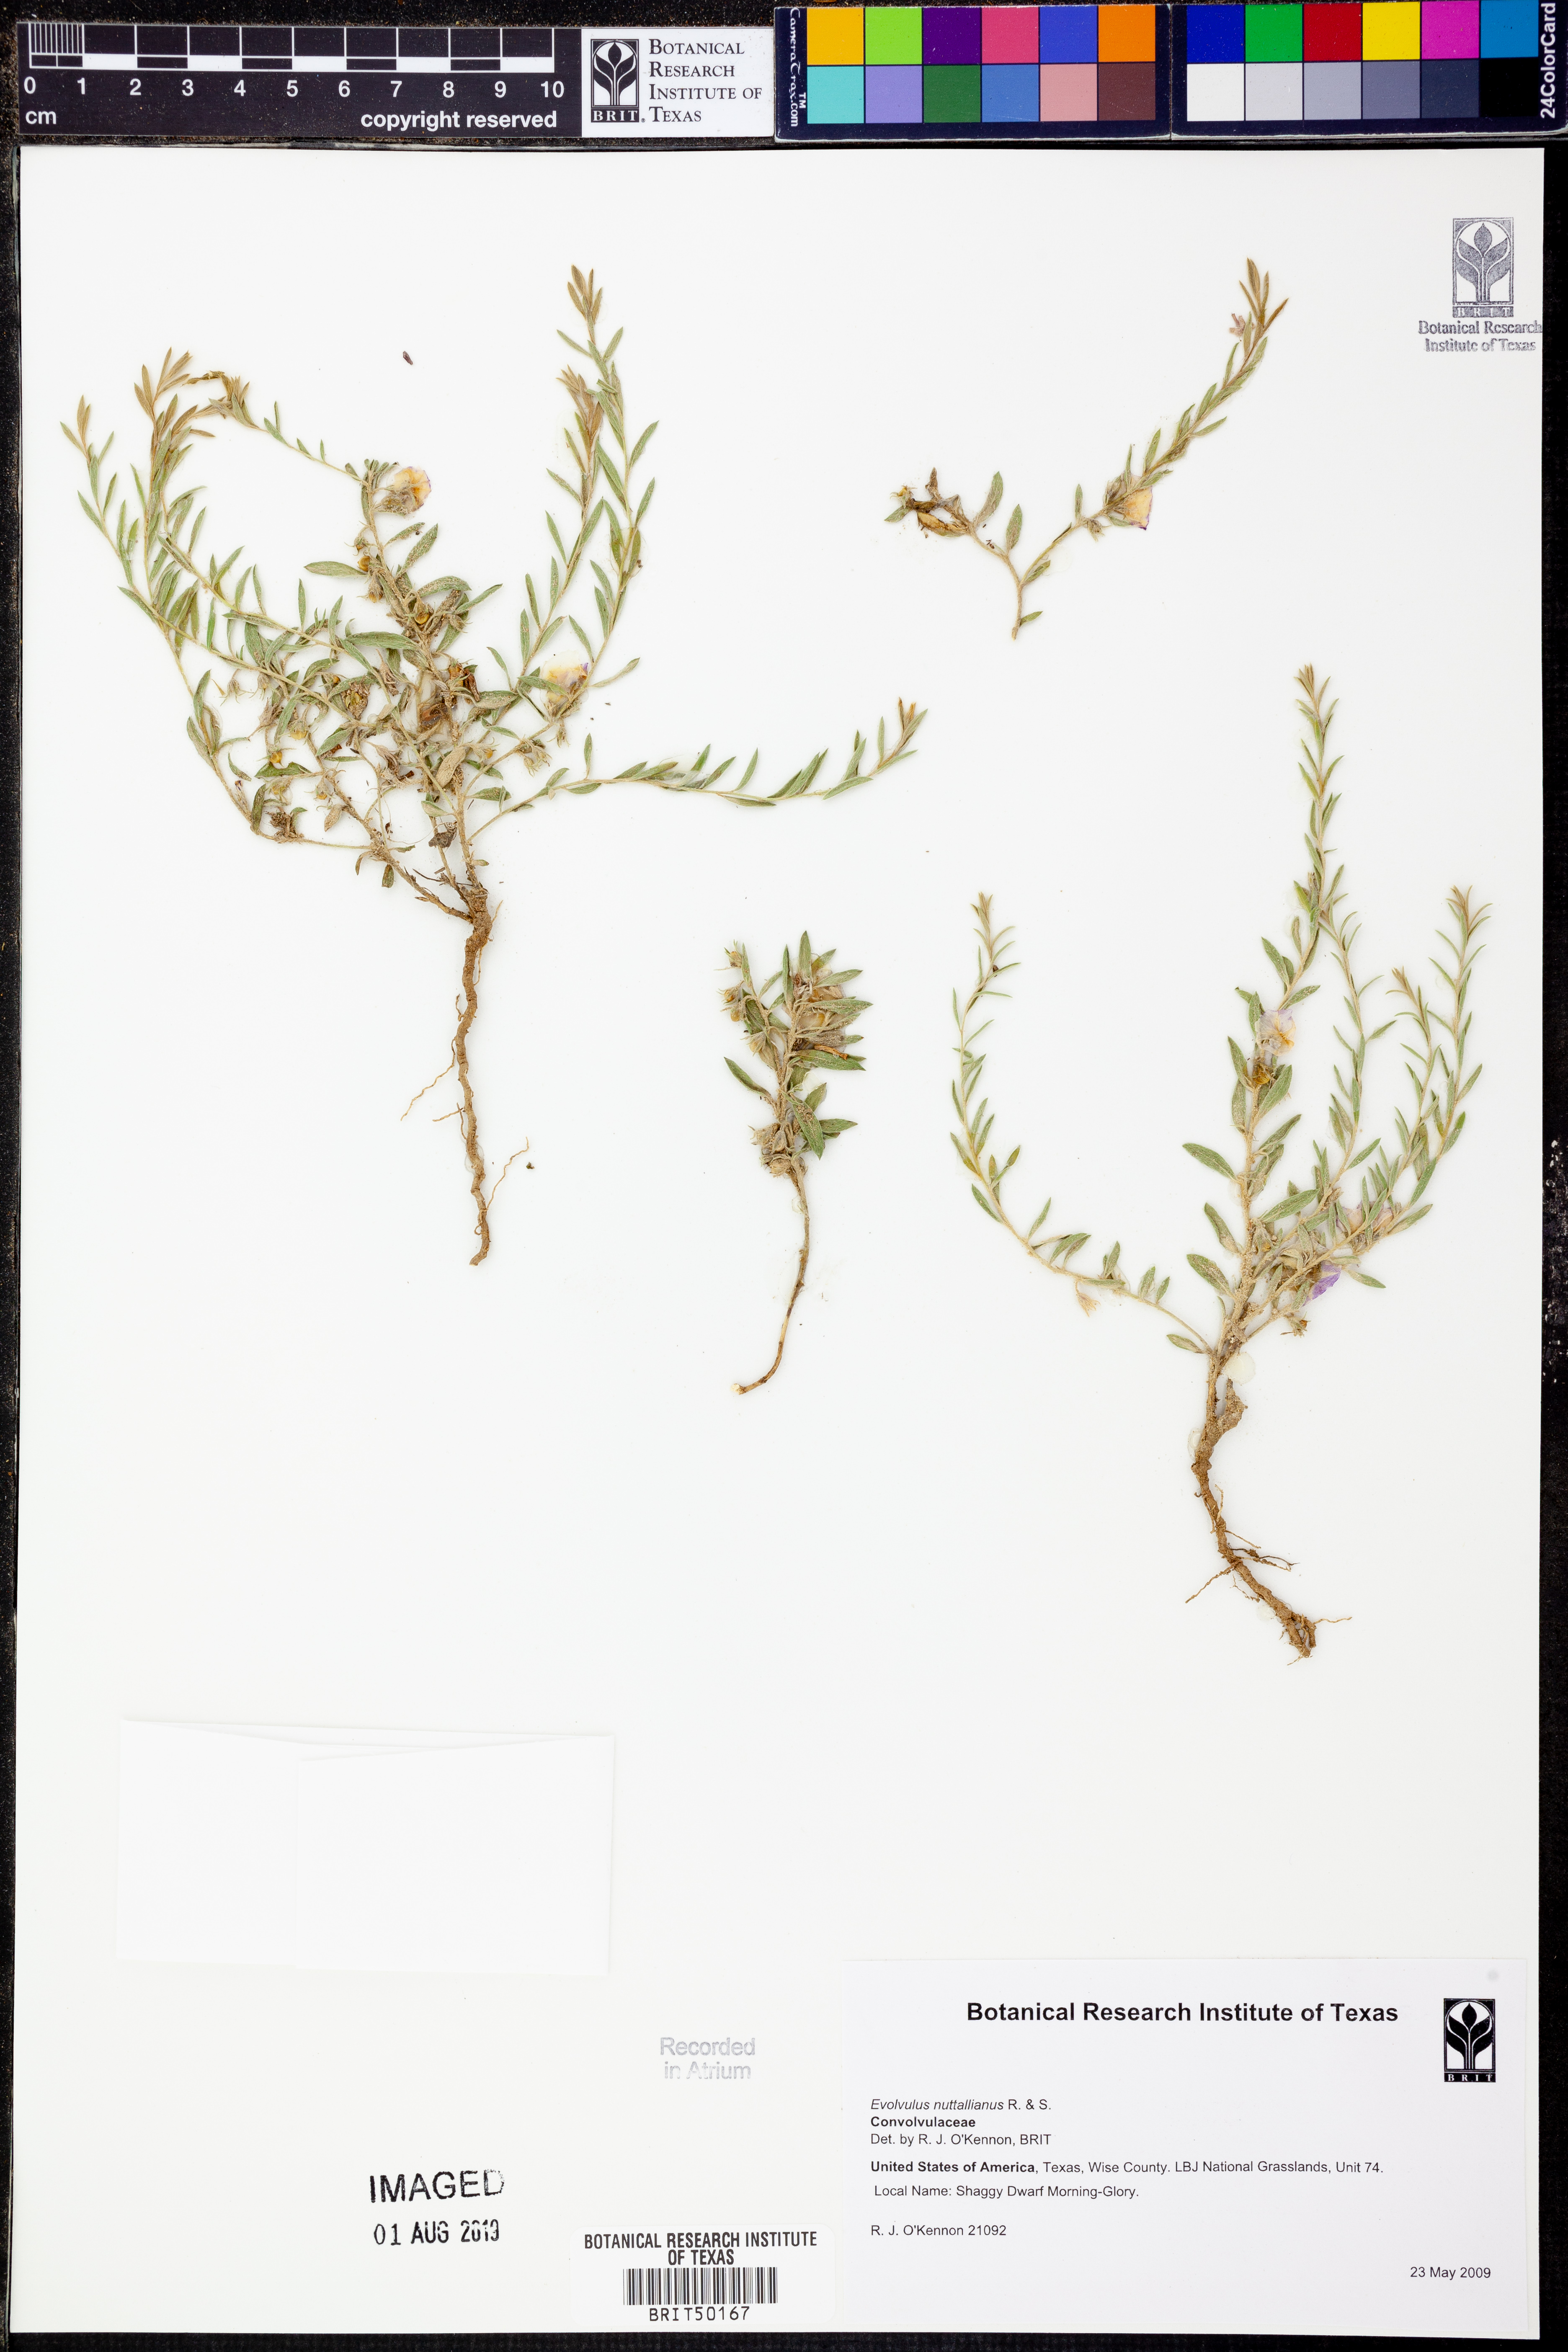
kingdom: Plantae
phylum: Tracheophyta
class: Magnoliopsida
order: Solanales
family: Convolvulaceae
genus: Evolvulus
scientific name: Evolvulus nuttallianus
